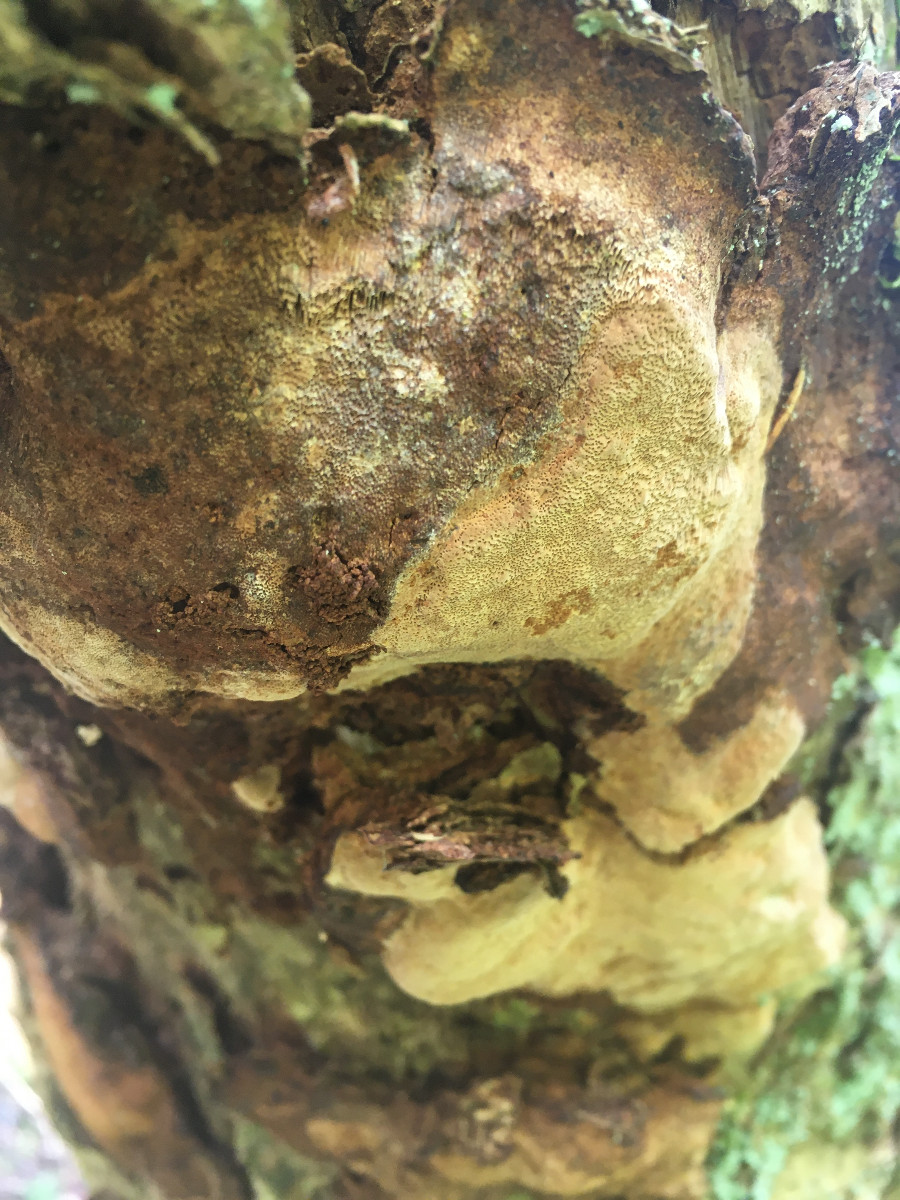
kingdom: Fungi
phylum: Basidiomycota
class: Agaricomycetes
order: Hymenochaetales
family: Hymenochaetaceae
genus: Phellinus
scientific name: Phellinus pomaceus
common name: blomme-ildporesvamp
